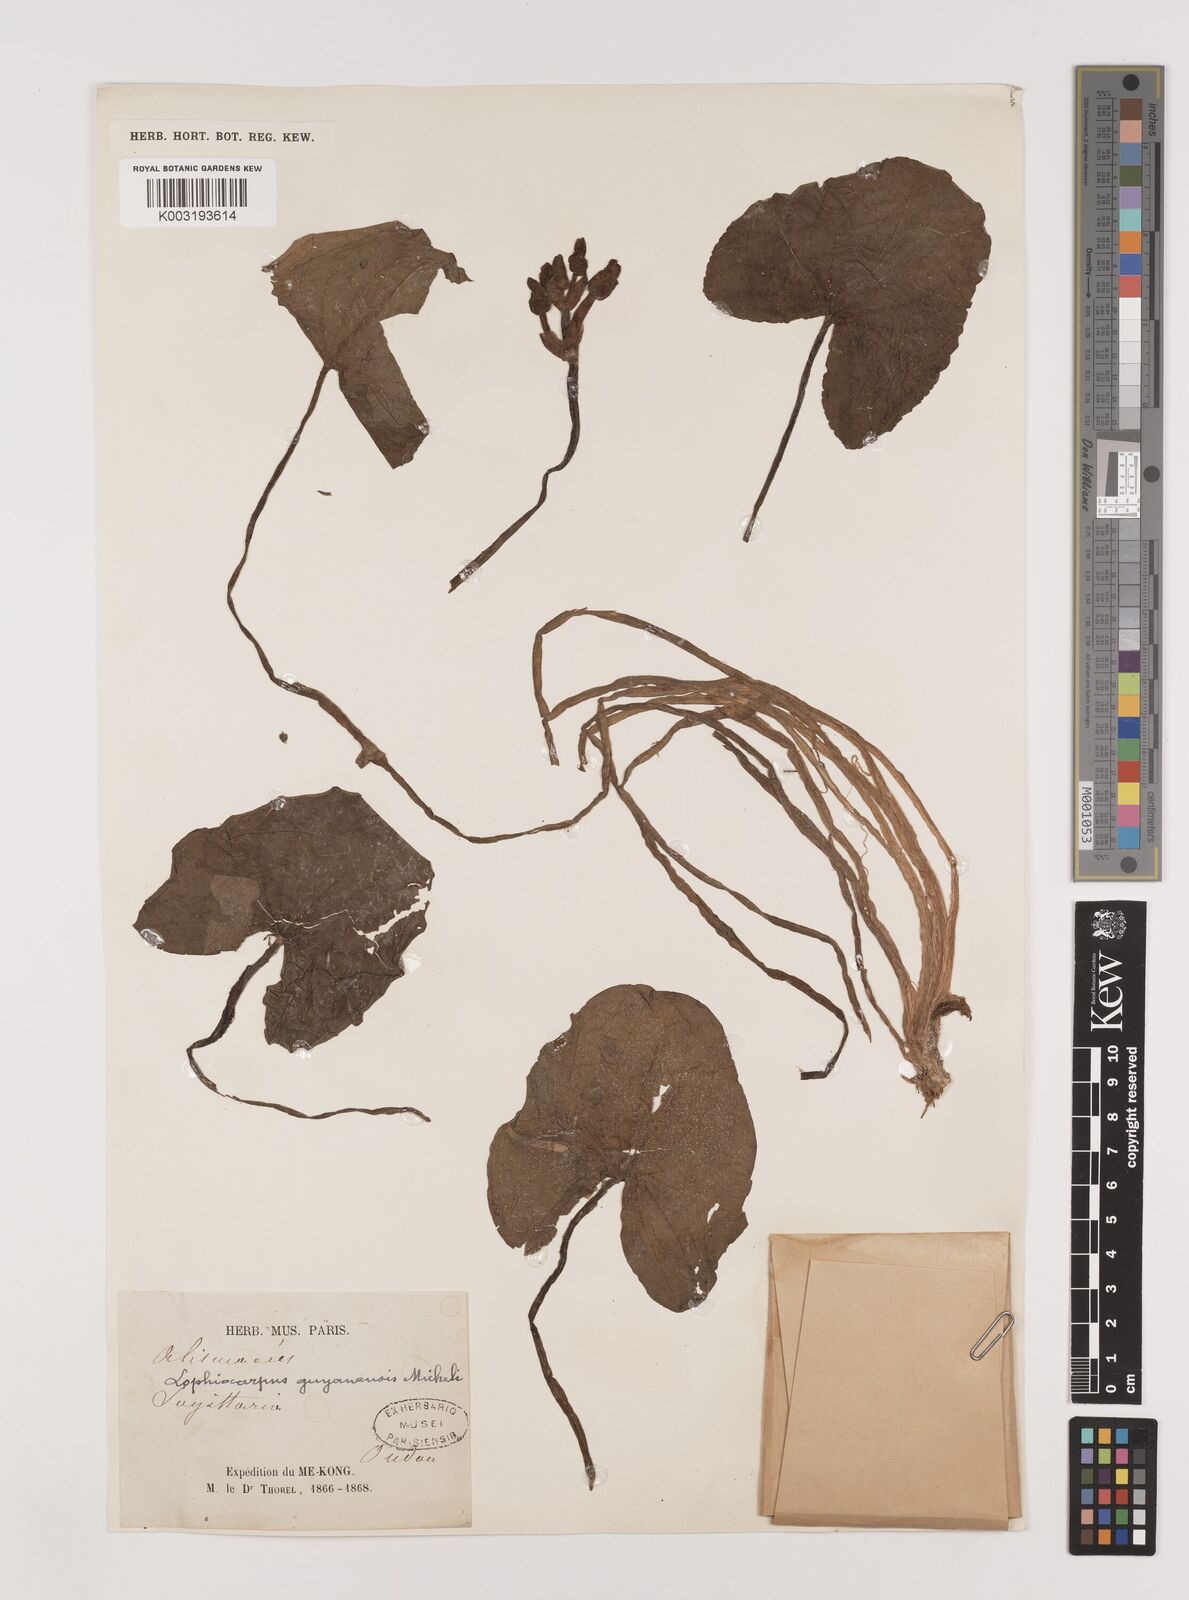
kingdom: Plantae
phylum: Tracheophyta
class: Liliopsida
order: Alismatales
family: Alismataceae
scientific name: Alismataceae
